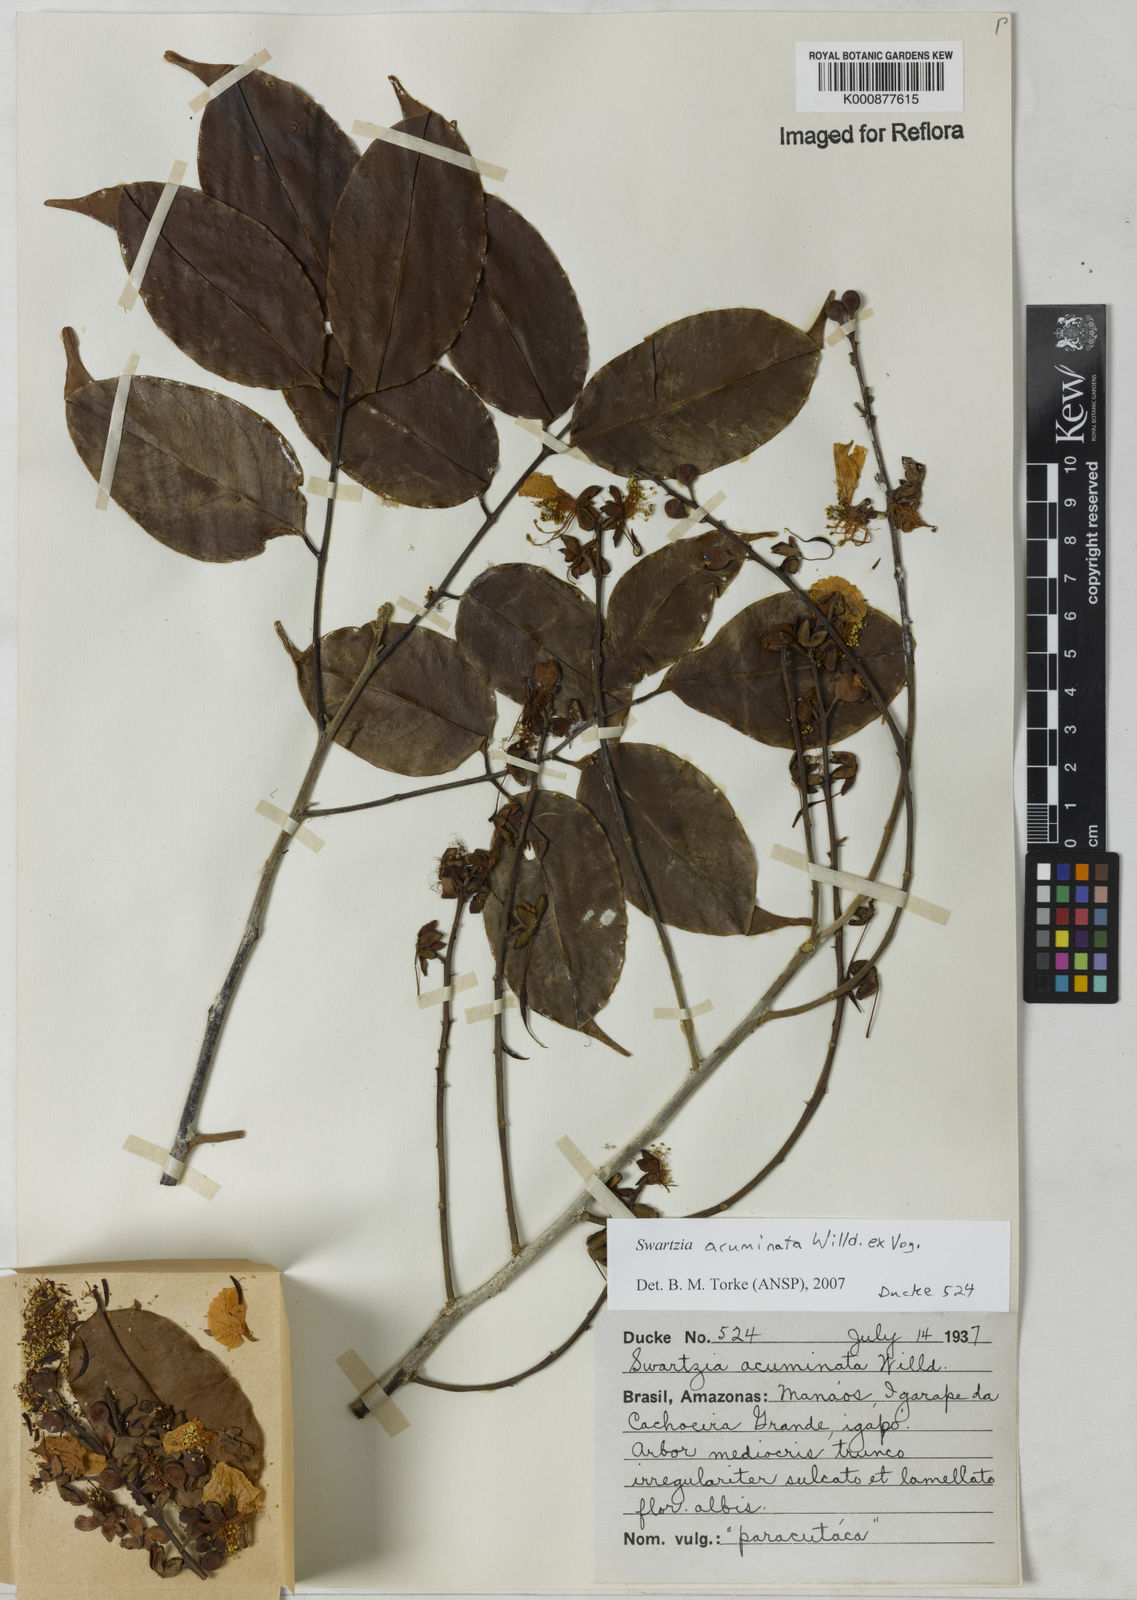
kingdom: Plantae
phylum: Tracheophyta
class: Magnoliopsida
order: Fabales
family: Fabaceae
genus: Swartzia
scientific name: Swartzia acuminata
